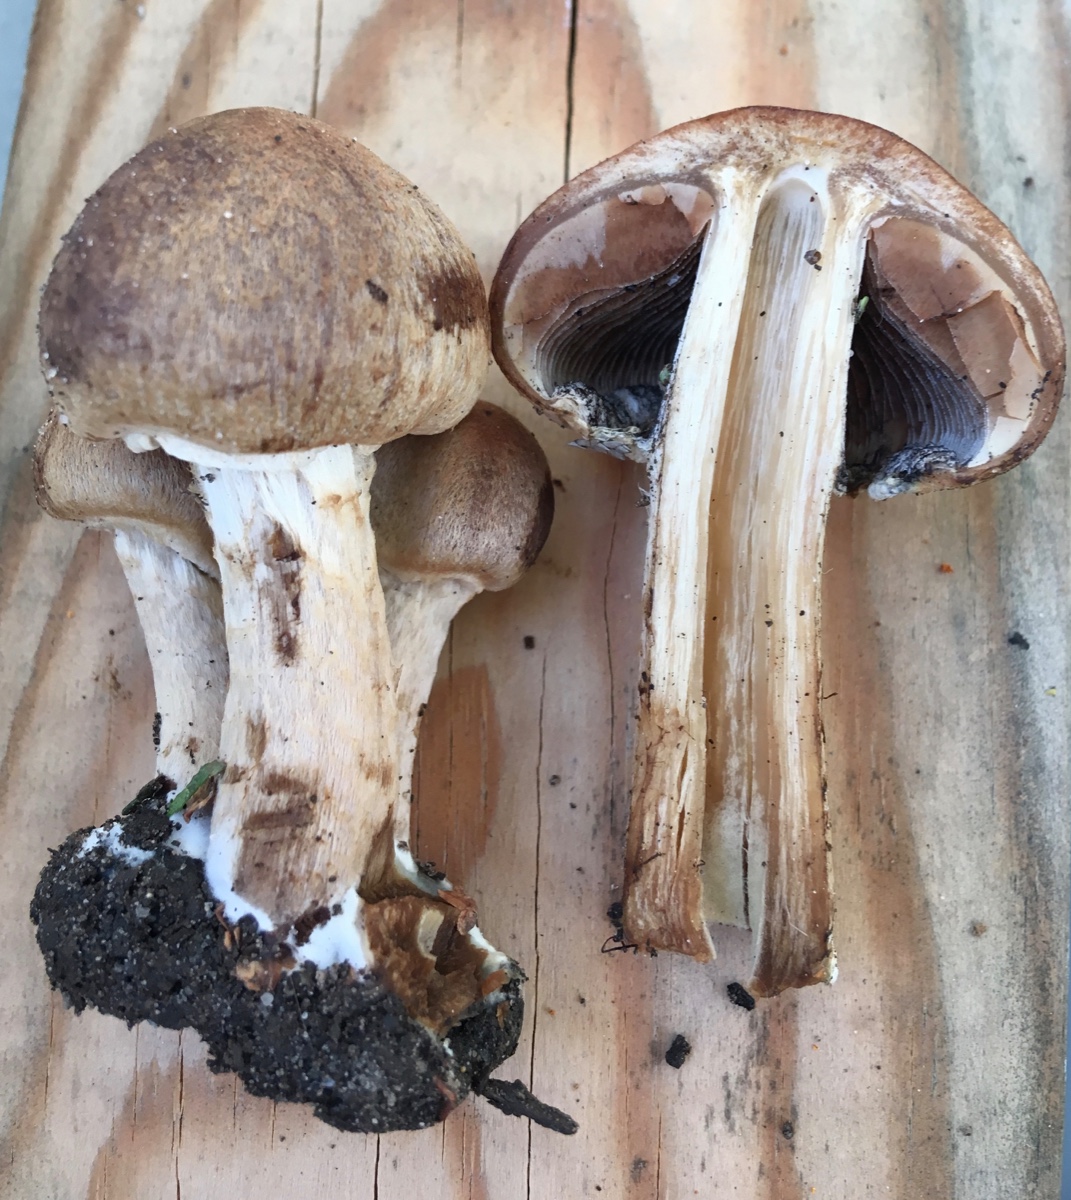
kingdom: Fungi
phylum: Basidiomycota
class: Agaricomycetes
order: Agaricales
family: Psathyrellaceae
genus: Lacrymaria
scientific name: Lacrymaria lacrymabunda
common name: grædende mørkhat
